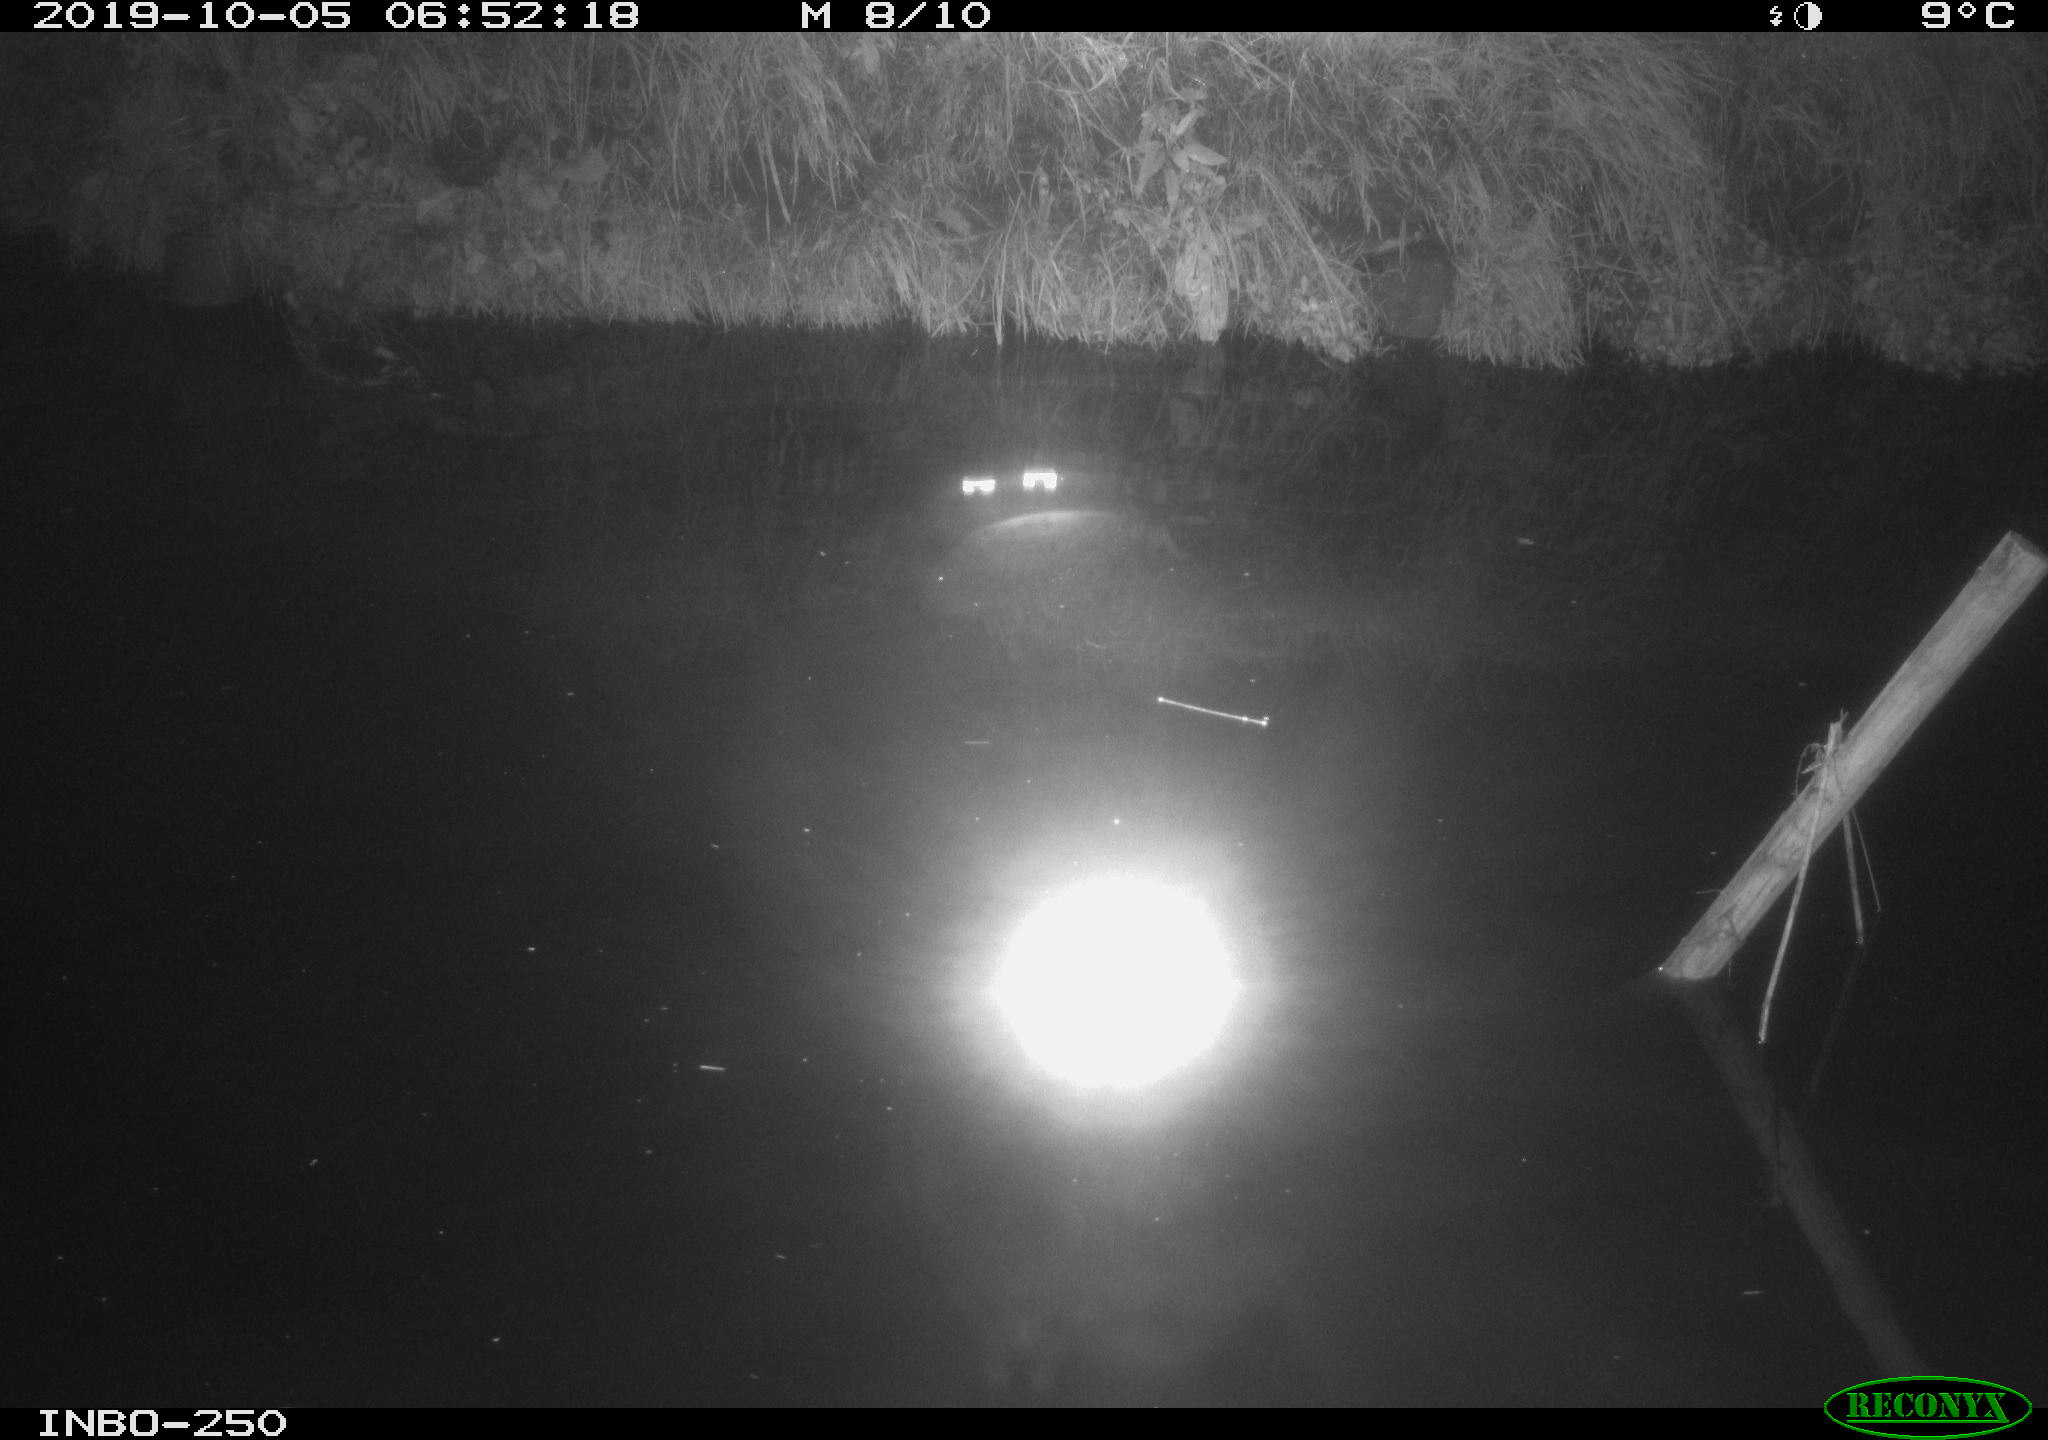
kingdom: Animalia
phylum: Chordata
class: Aves
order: Anseriformes
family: Anatidae
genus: Anas
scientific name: Anas platyrhynchos
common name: Mallard
